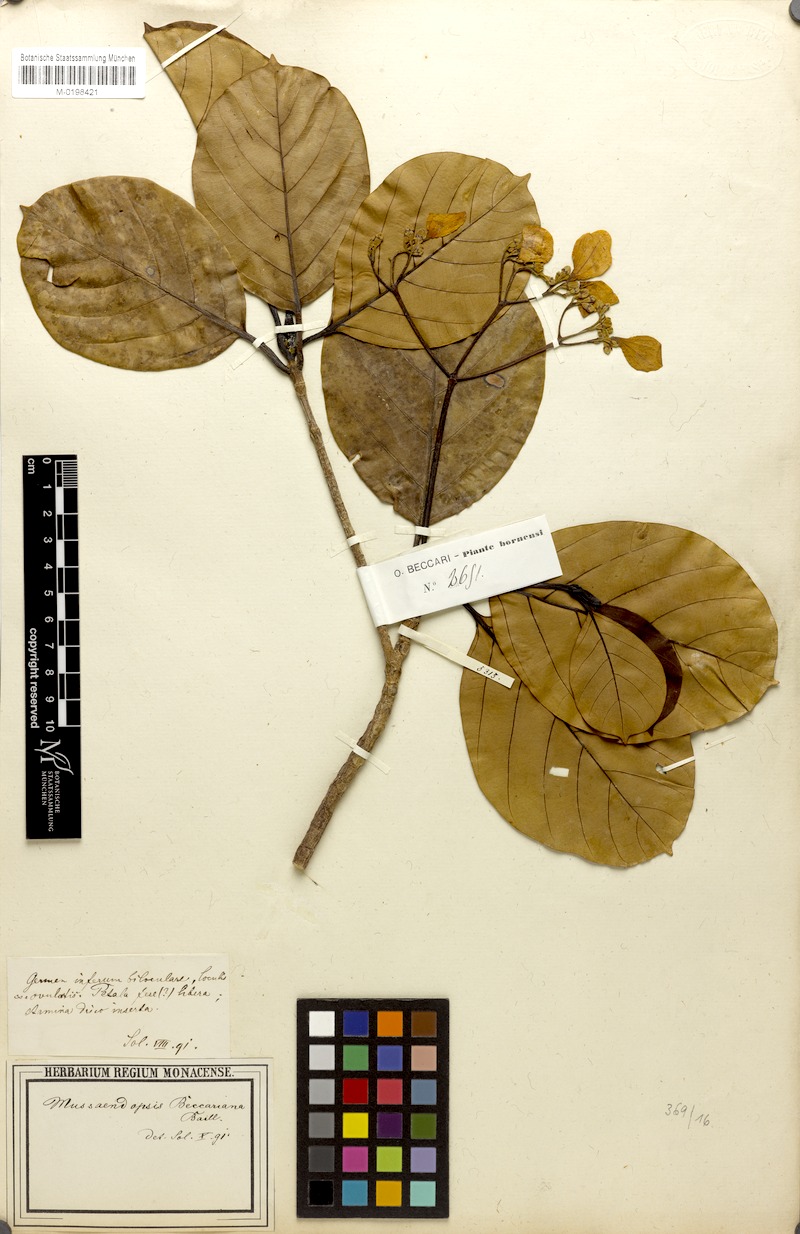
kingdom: Plantae
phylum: Tracheophyta
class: Magnoliopsida
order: Gentianales
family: Rubiaceae
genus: Mussaendopsis
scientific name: Mussaendopsis beccariana
